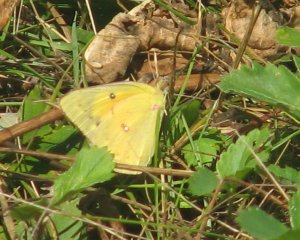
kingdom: Animalia
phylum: Arthropoda
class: Insecta
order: Lepidoptera
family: Pieridae
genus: Colias
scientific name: Colias philodice
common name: Clouded Sulphur
